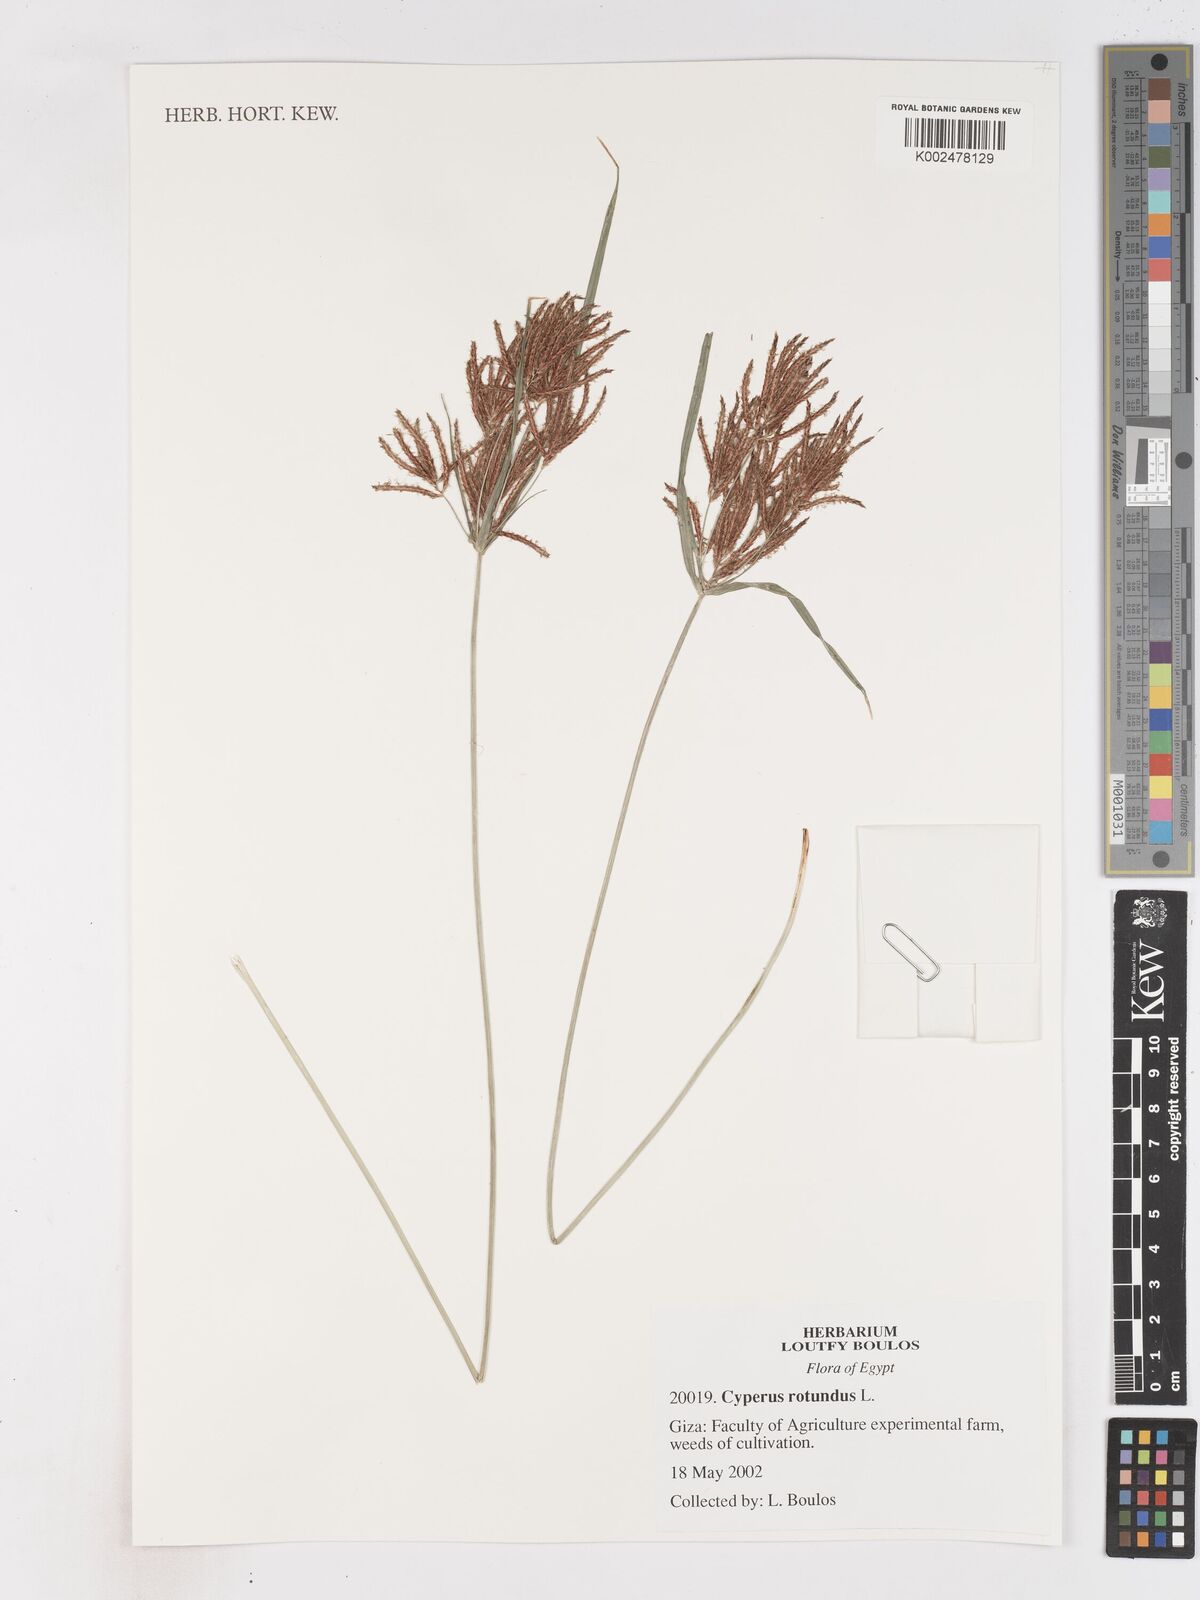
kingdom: Plantae
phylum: Tracheophyta
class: Liliopsida
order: Poales
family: Cyperaceae
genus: Cyperus
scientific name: Cyperus rotundus
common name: Nutgrass
